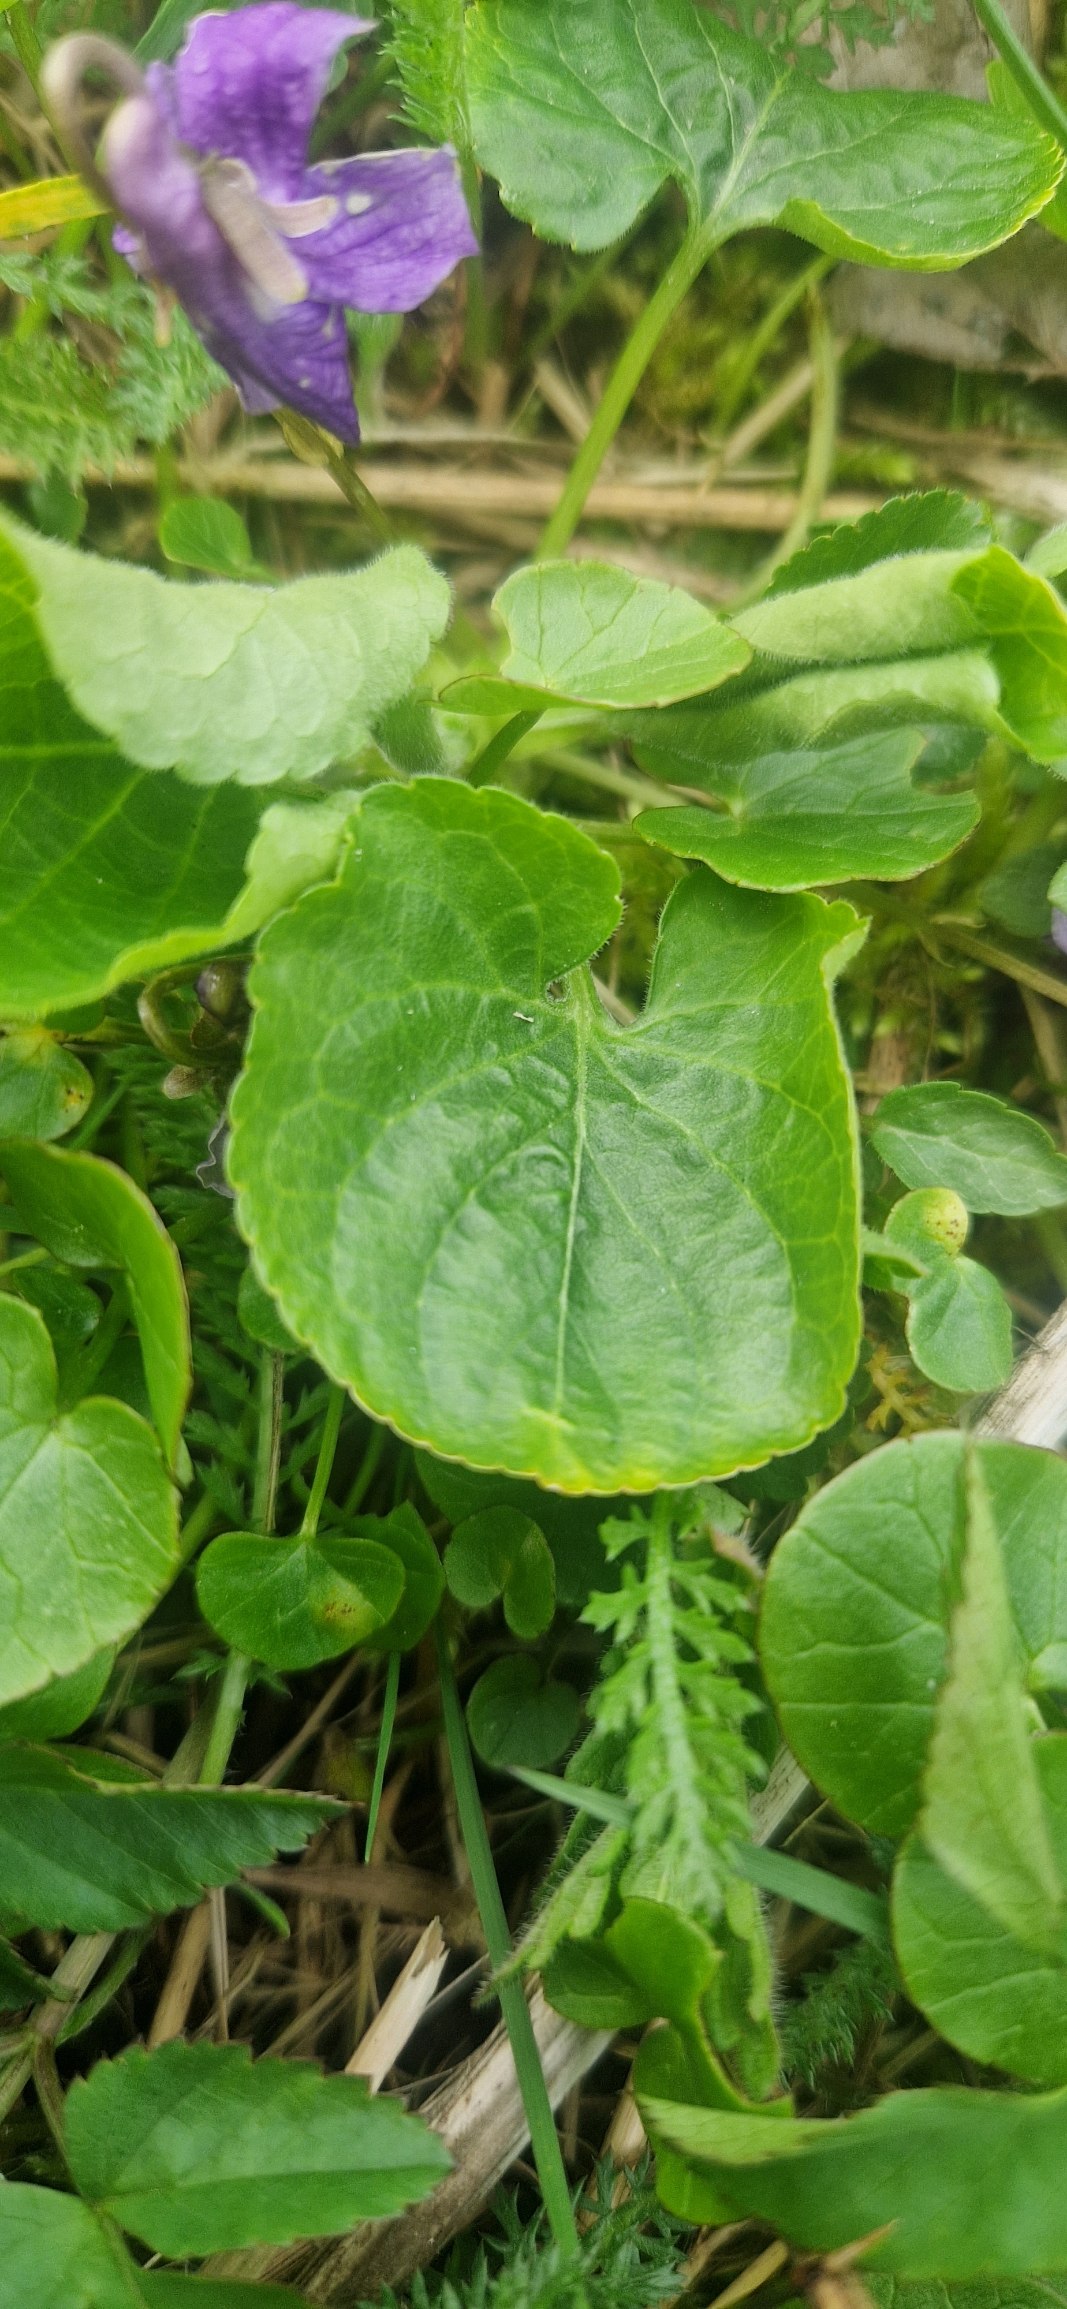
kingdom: Plantae
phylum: Tracheophyta
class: Magnoliopsida
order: Malpighiales
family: Violaceae
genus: Viola
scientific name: Viola odorata
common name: Marts-viol
